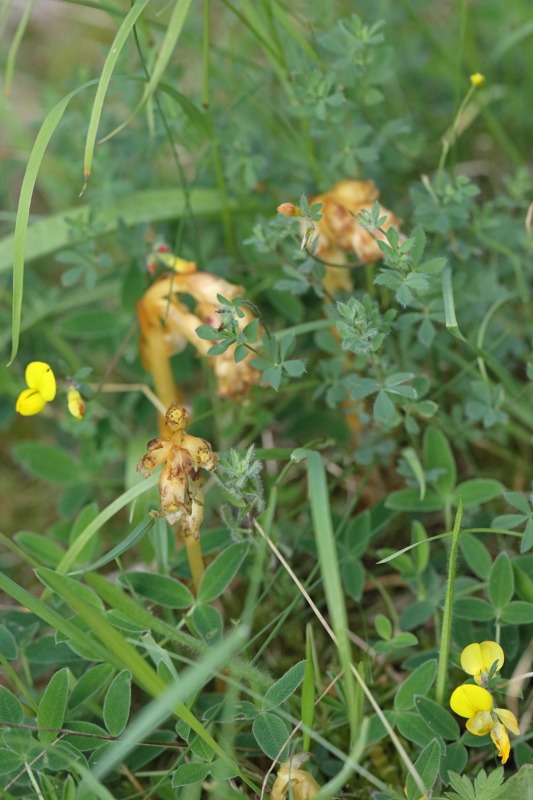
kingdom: Plantae
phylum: Tracheophyta
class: Magnoliopsida
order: Ericales
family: Ericaceae
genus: Hypopitys
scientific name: Hypopitys monotropa
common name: Snylterod
